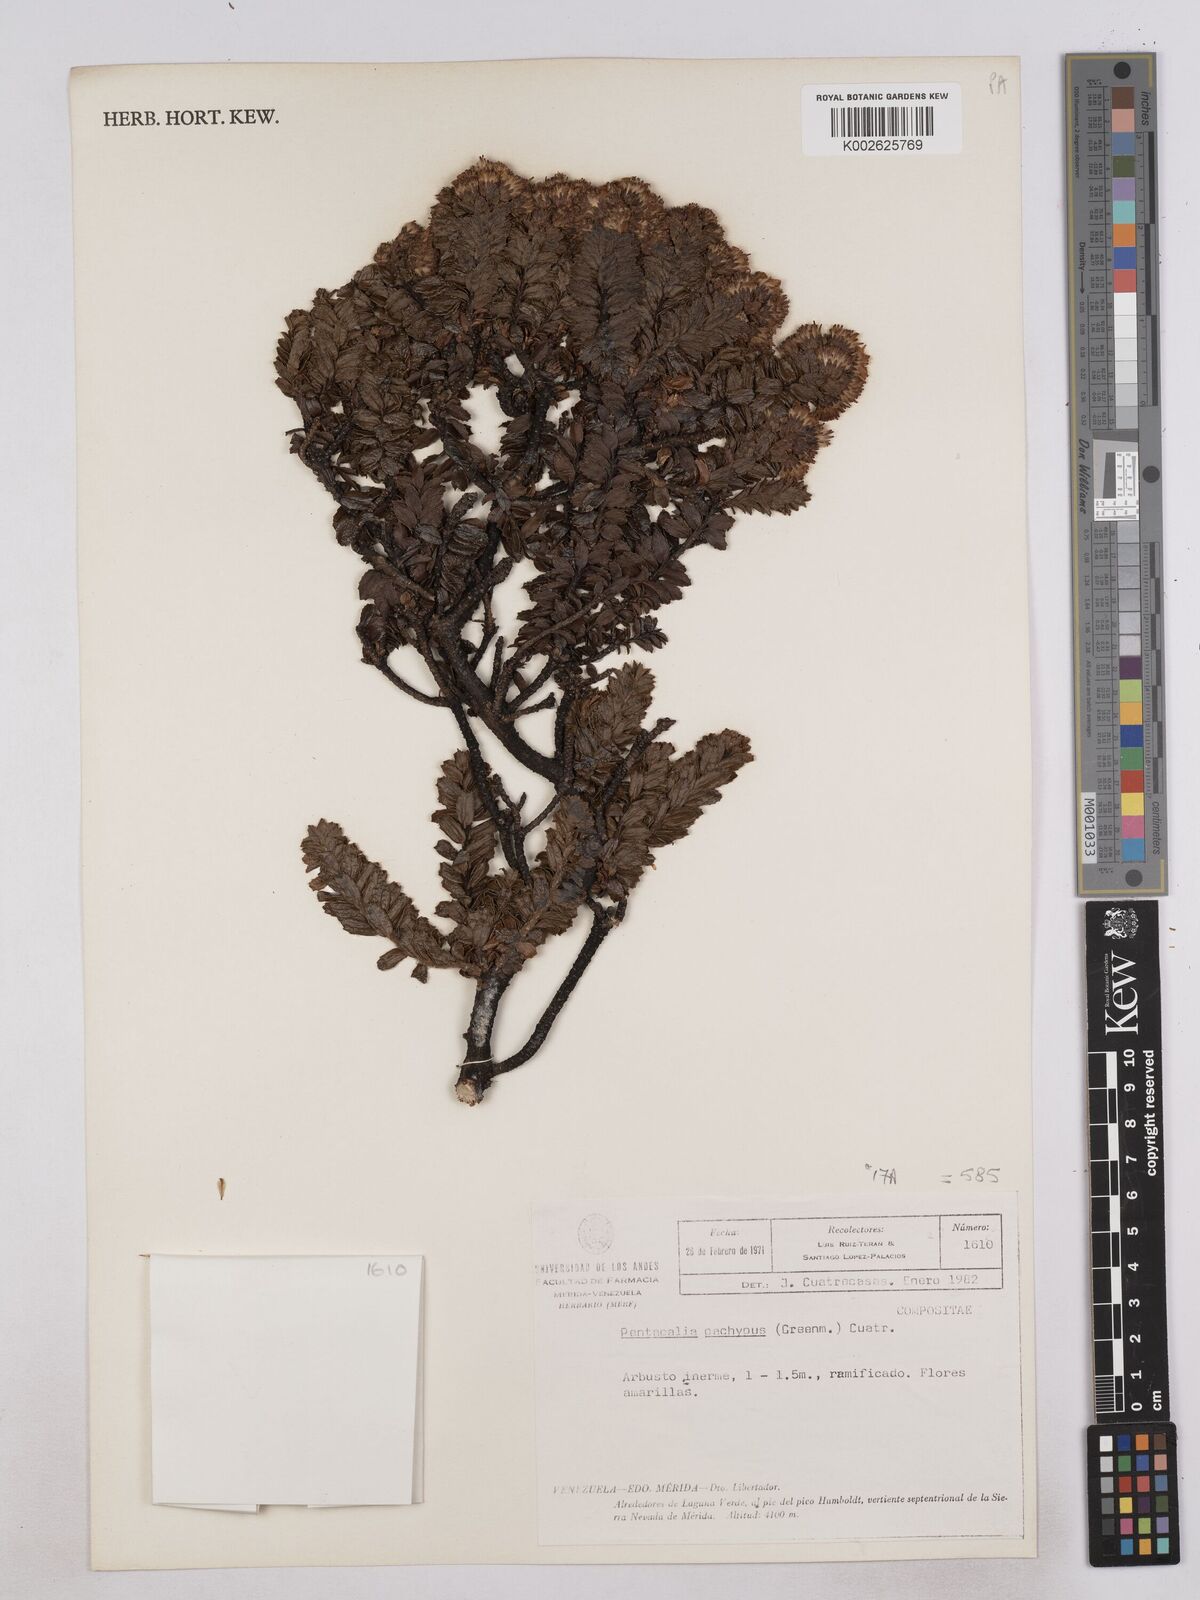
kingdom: Plantae
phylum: Tracheophyta
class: Magnoliopsida
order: Asterales
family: Asteraceae
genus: Monticalia
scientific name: Monticalia pachypus
